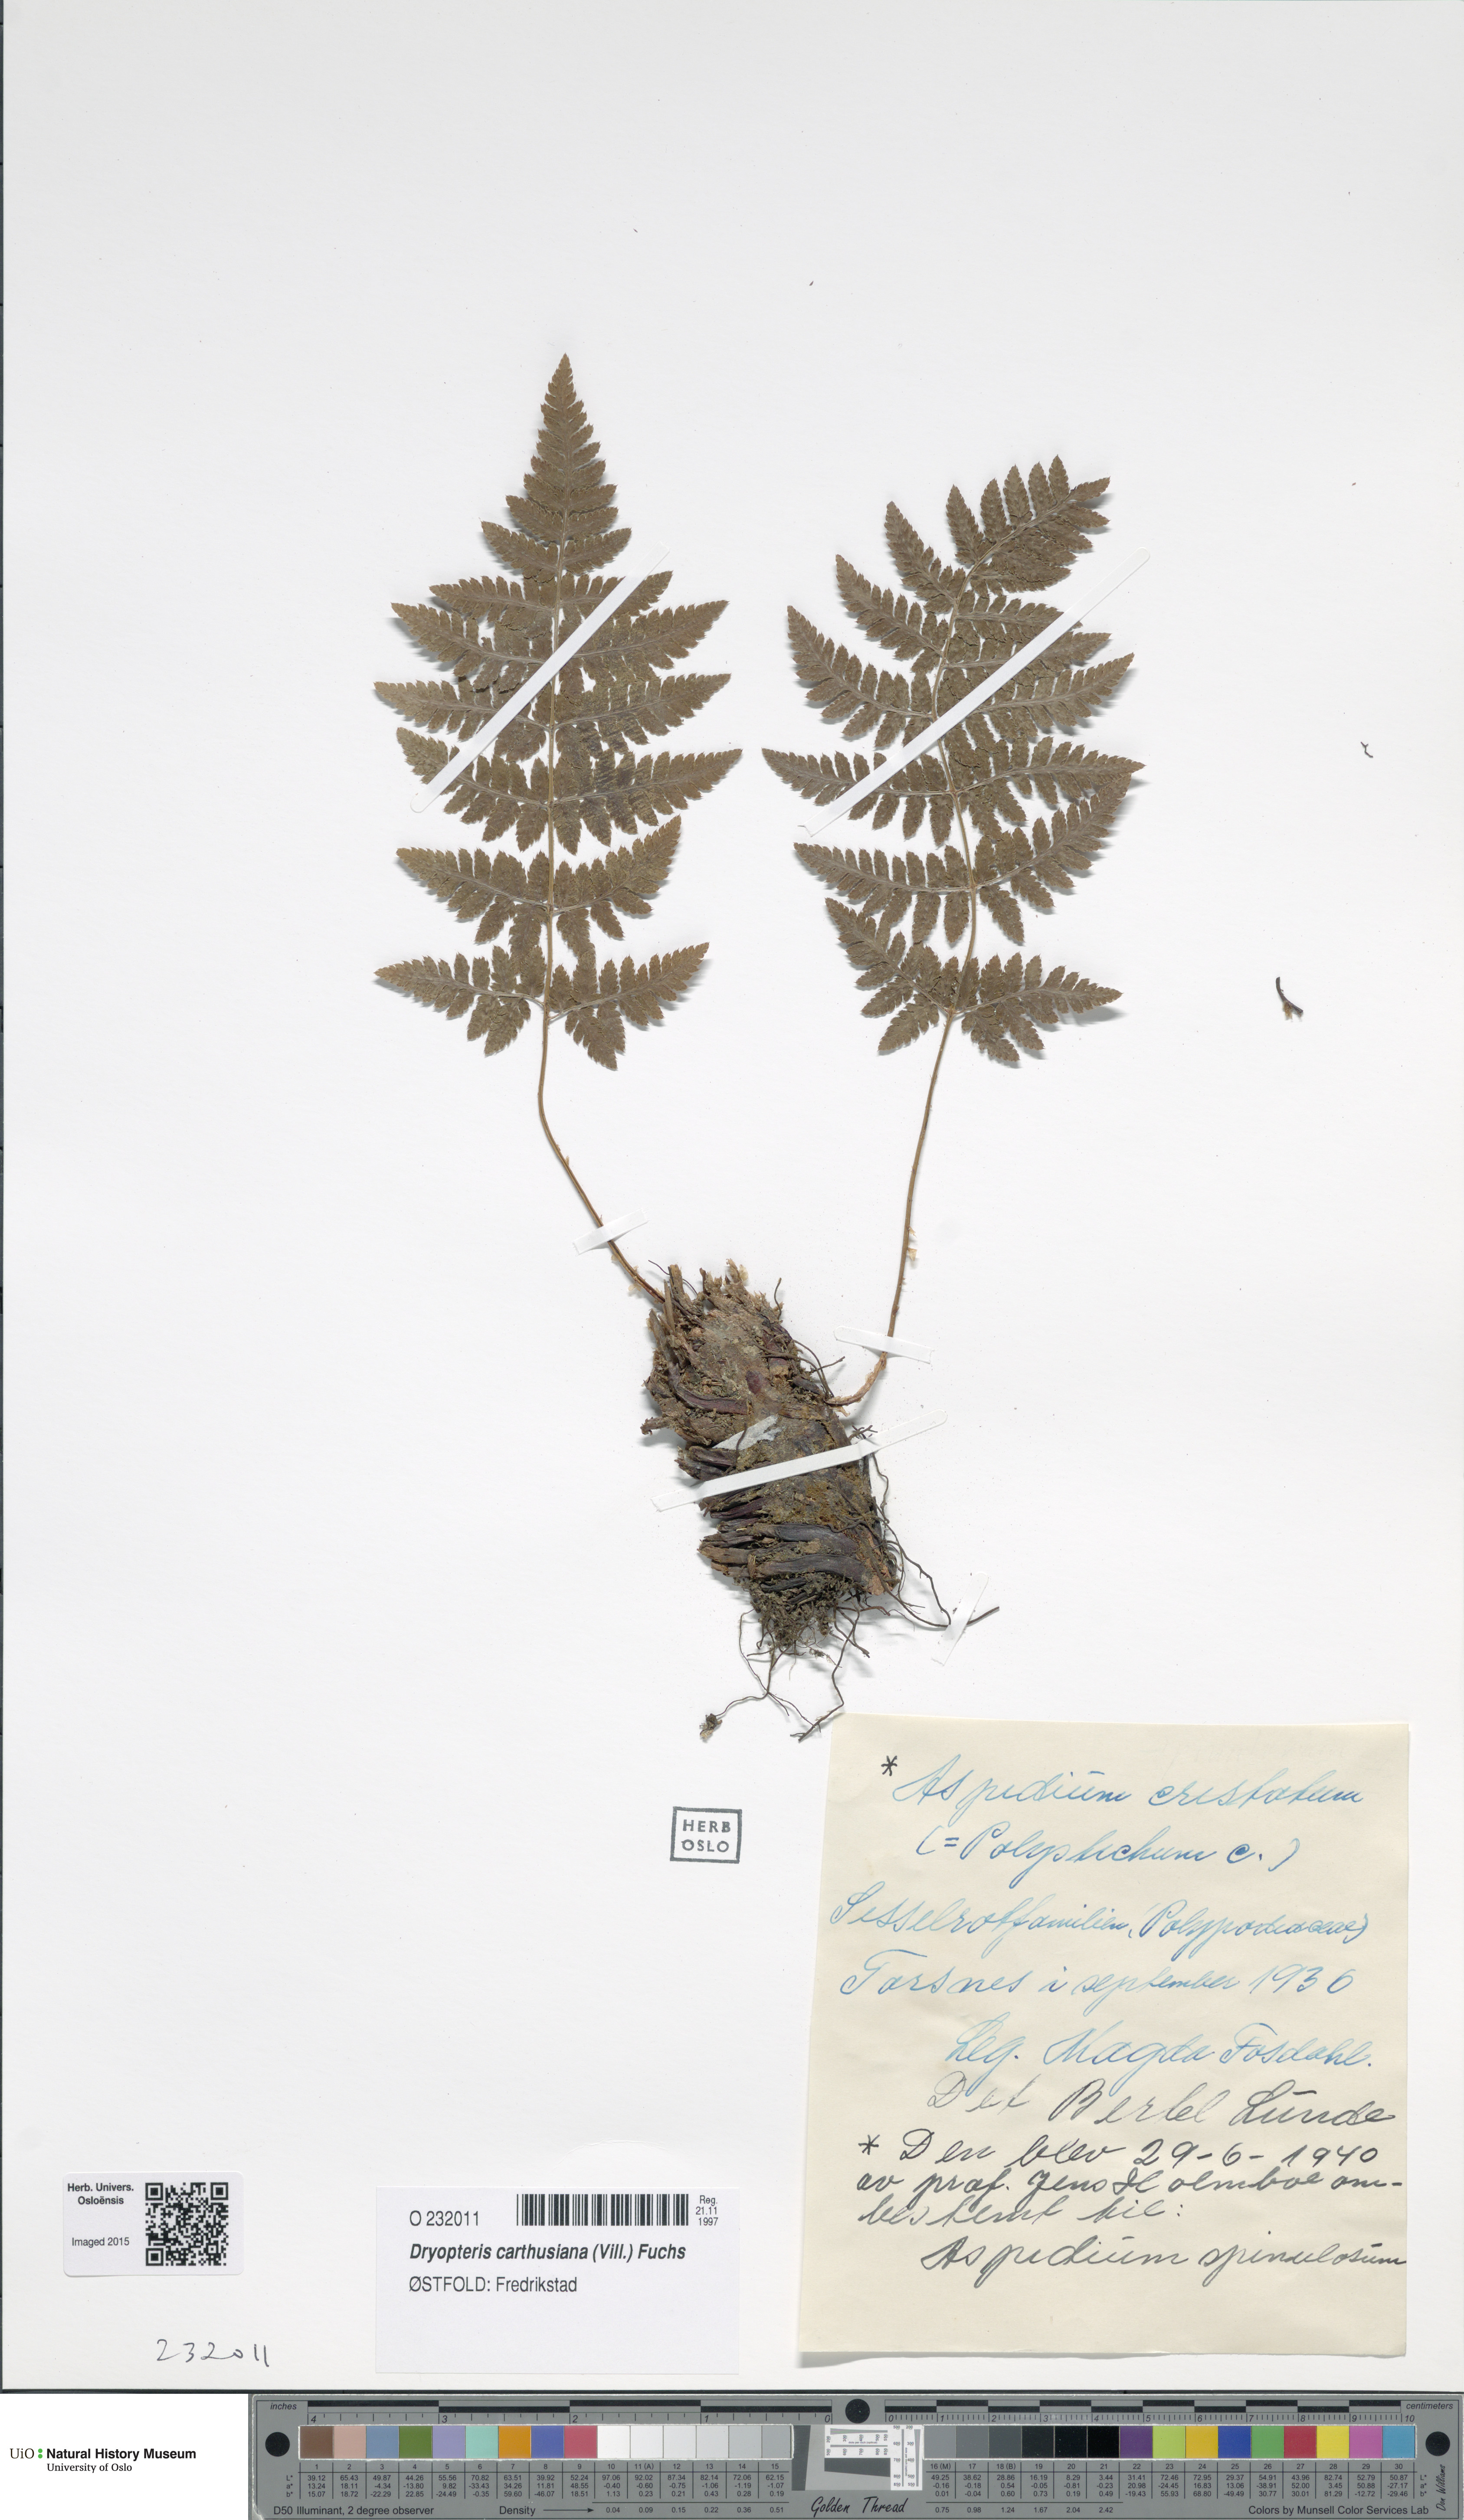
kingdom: Plantae
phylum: Tracheophyta
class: Polypodiopsida
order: Polypodiales
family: Dryopteridaceae
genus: Dryopteris
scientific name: Dryopteris carthusiana
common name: Narrow buckler-fern
